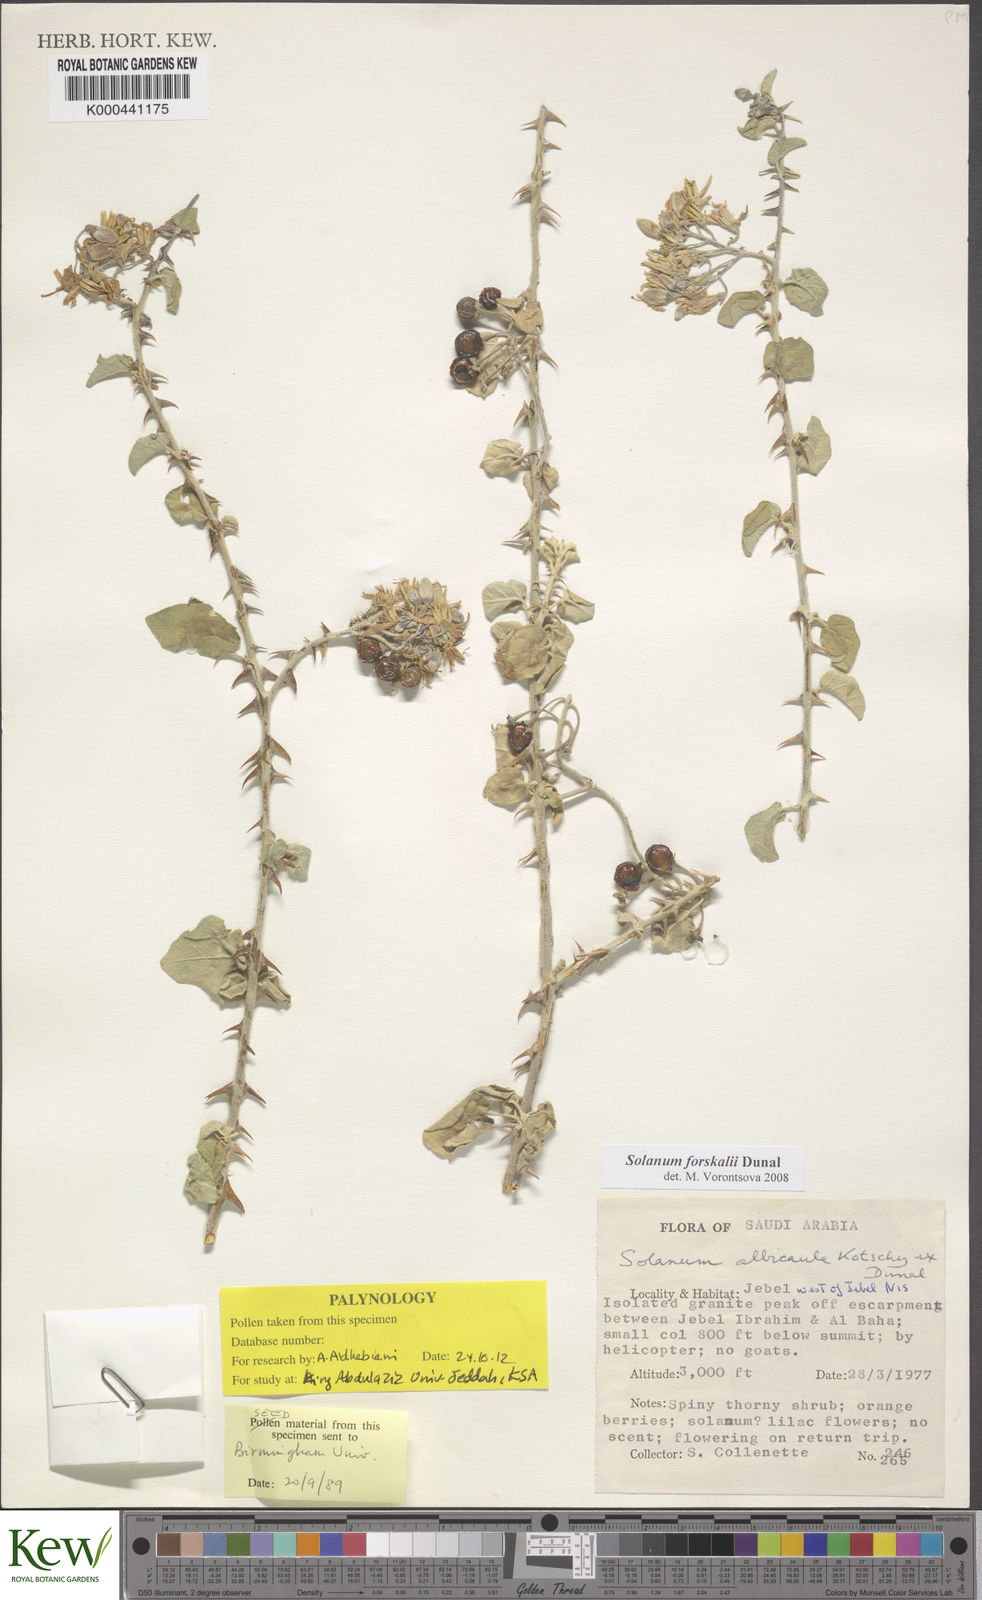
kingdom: Plantae
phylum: Tracheophyta
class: Magnoliopsida
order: Solanales
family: Solanaceae
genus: Solanum
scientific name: Solanum
